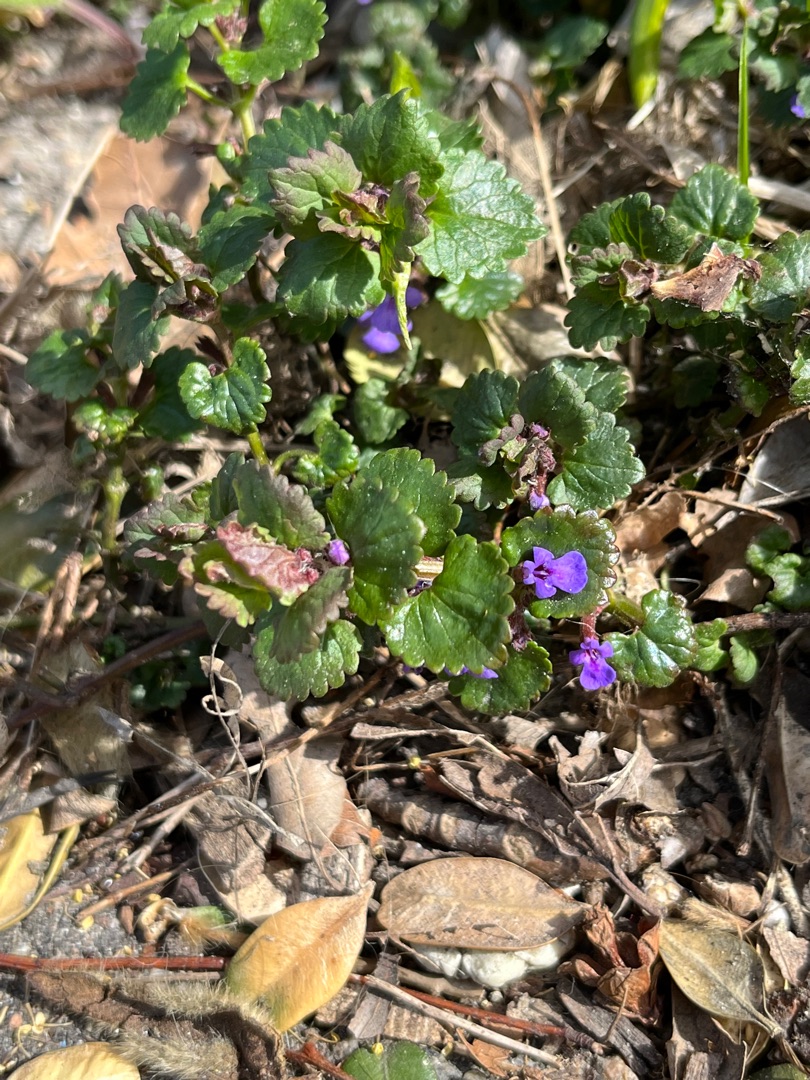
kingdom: Plantae
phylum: Tracheophyta
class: Magnoliopsida
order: Lamiales
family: Lamiaceae
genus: Glechoma
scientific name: Glechoma hederacea
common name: Korsknap
